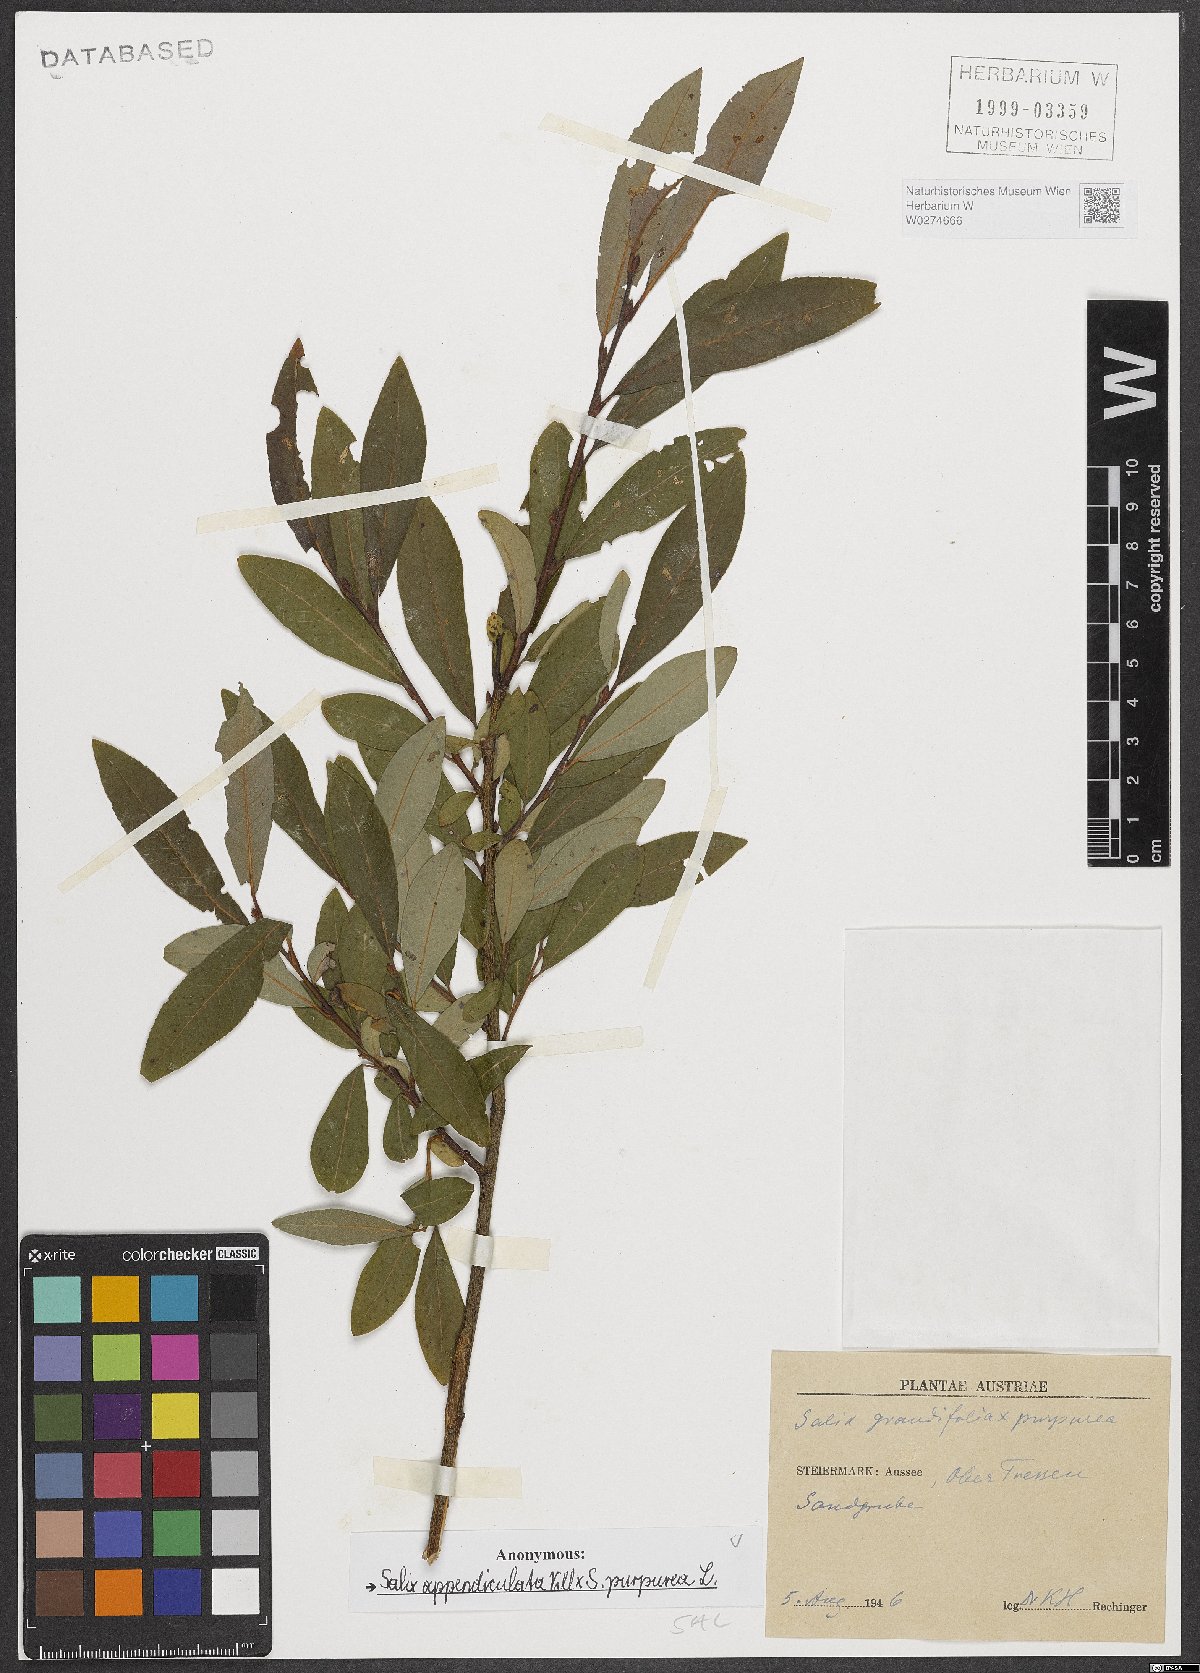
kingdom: Plantae
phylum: Tracheophyta
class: Magnoliopsida
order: Malpighiales
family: Salicaceae
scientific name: Salicaceae
